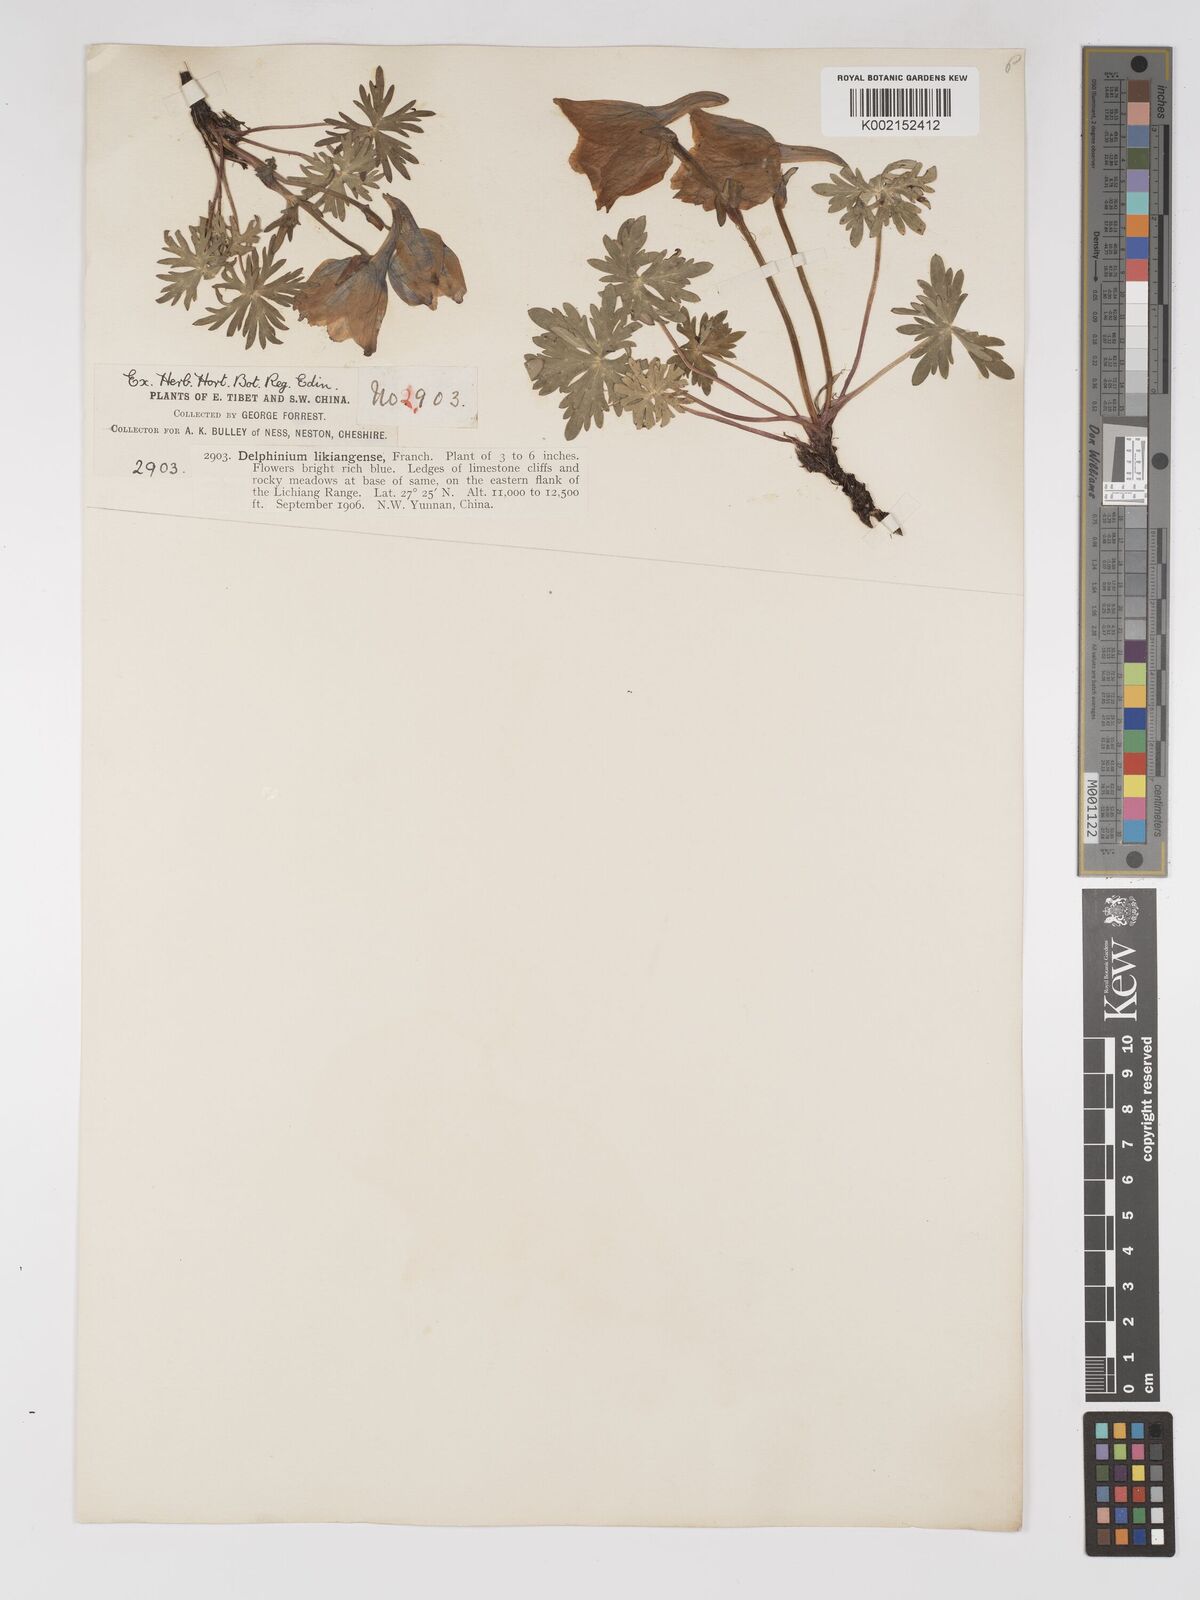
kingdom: Plantae
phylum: Tracheophyta
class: Magnoliopsida
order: Ranunculales
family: Ranunculaceae
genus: Delphinium
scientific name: Delphinium likiangense
